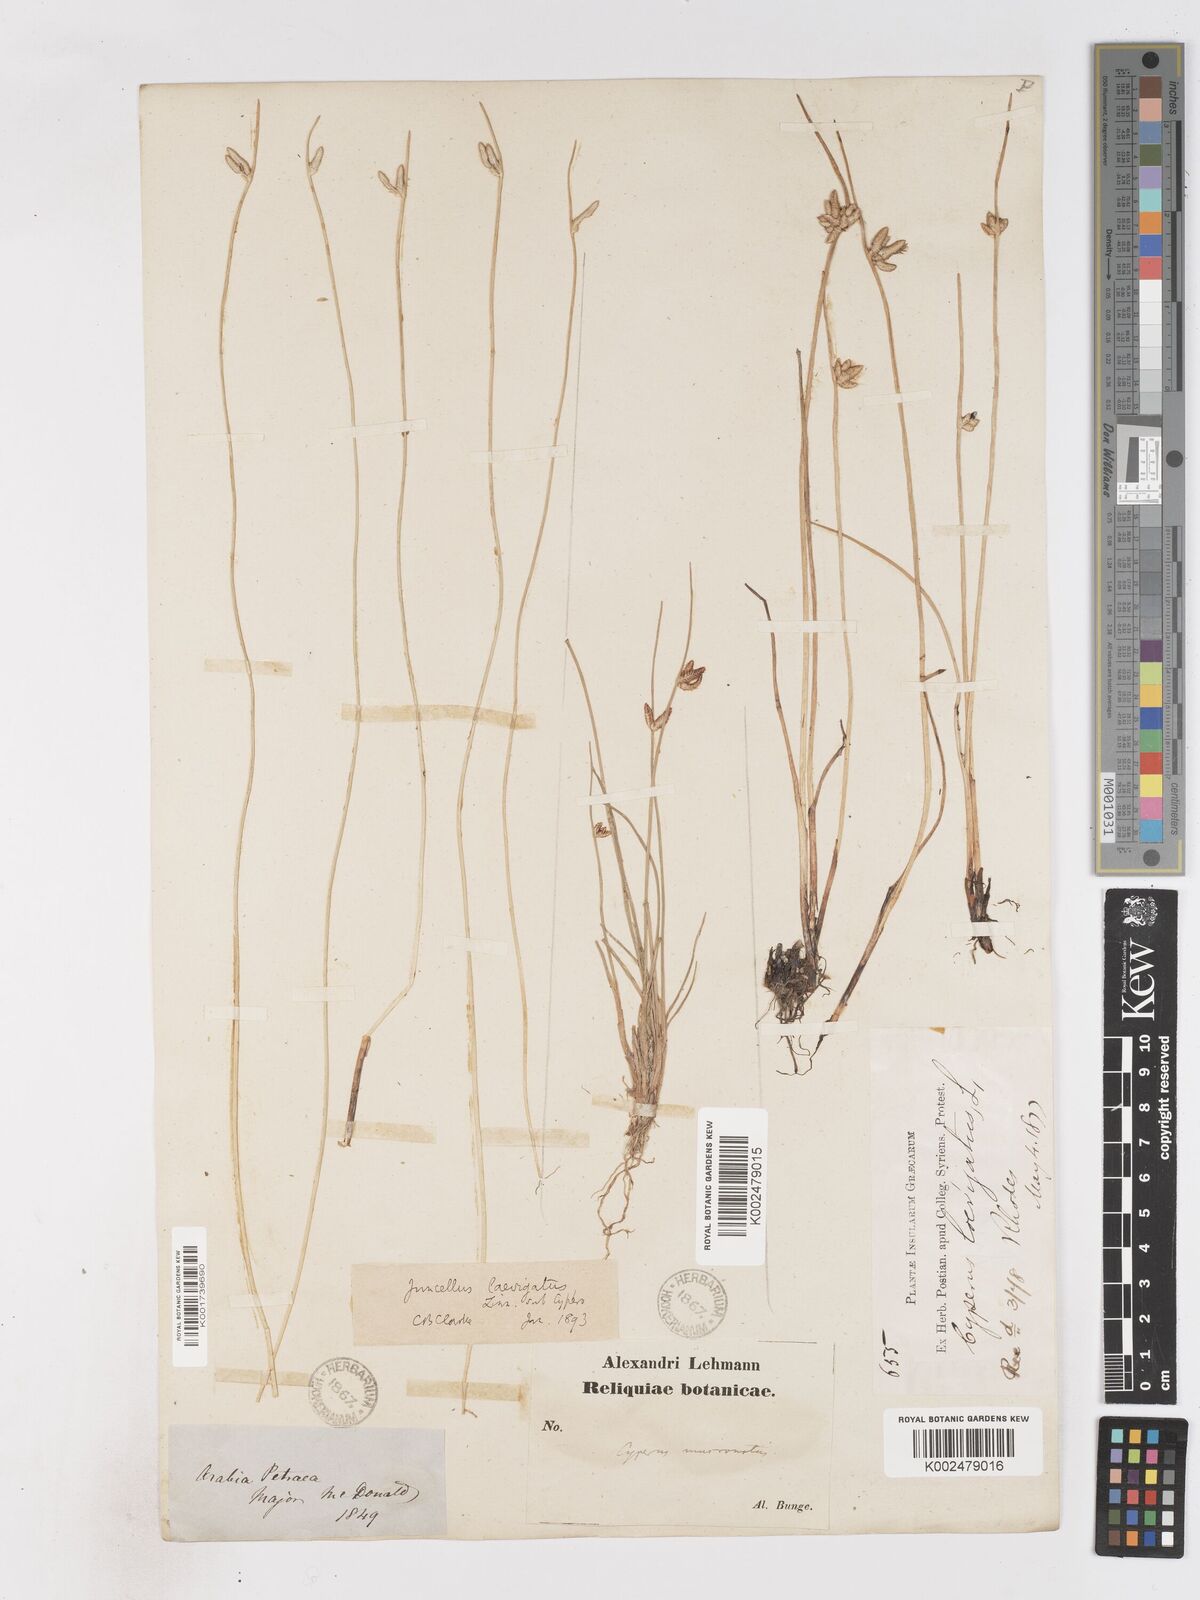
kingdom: Plantae
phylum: Tracheophyta
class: Liliopsida
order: Poales
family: Cyperaceae
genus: Cyperus
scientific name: Cyperus laevigatus
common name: Smooth flat sedge
